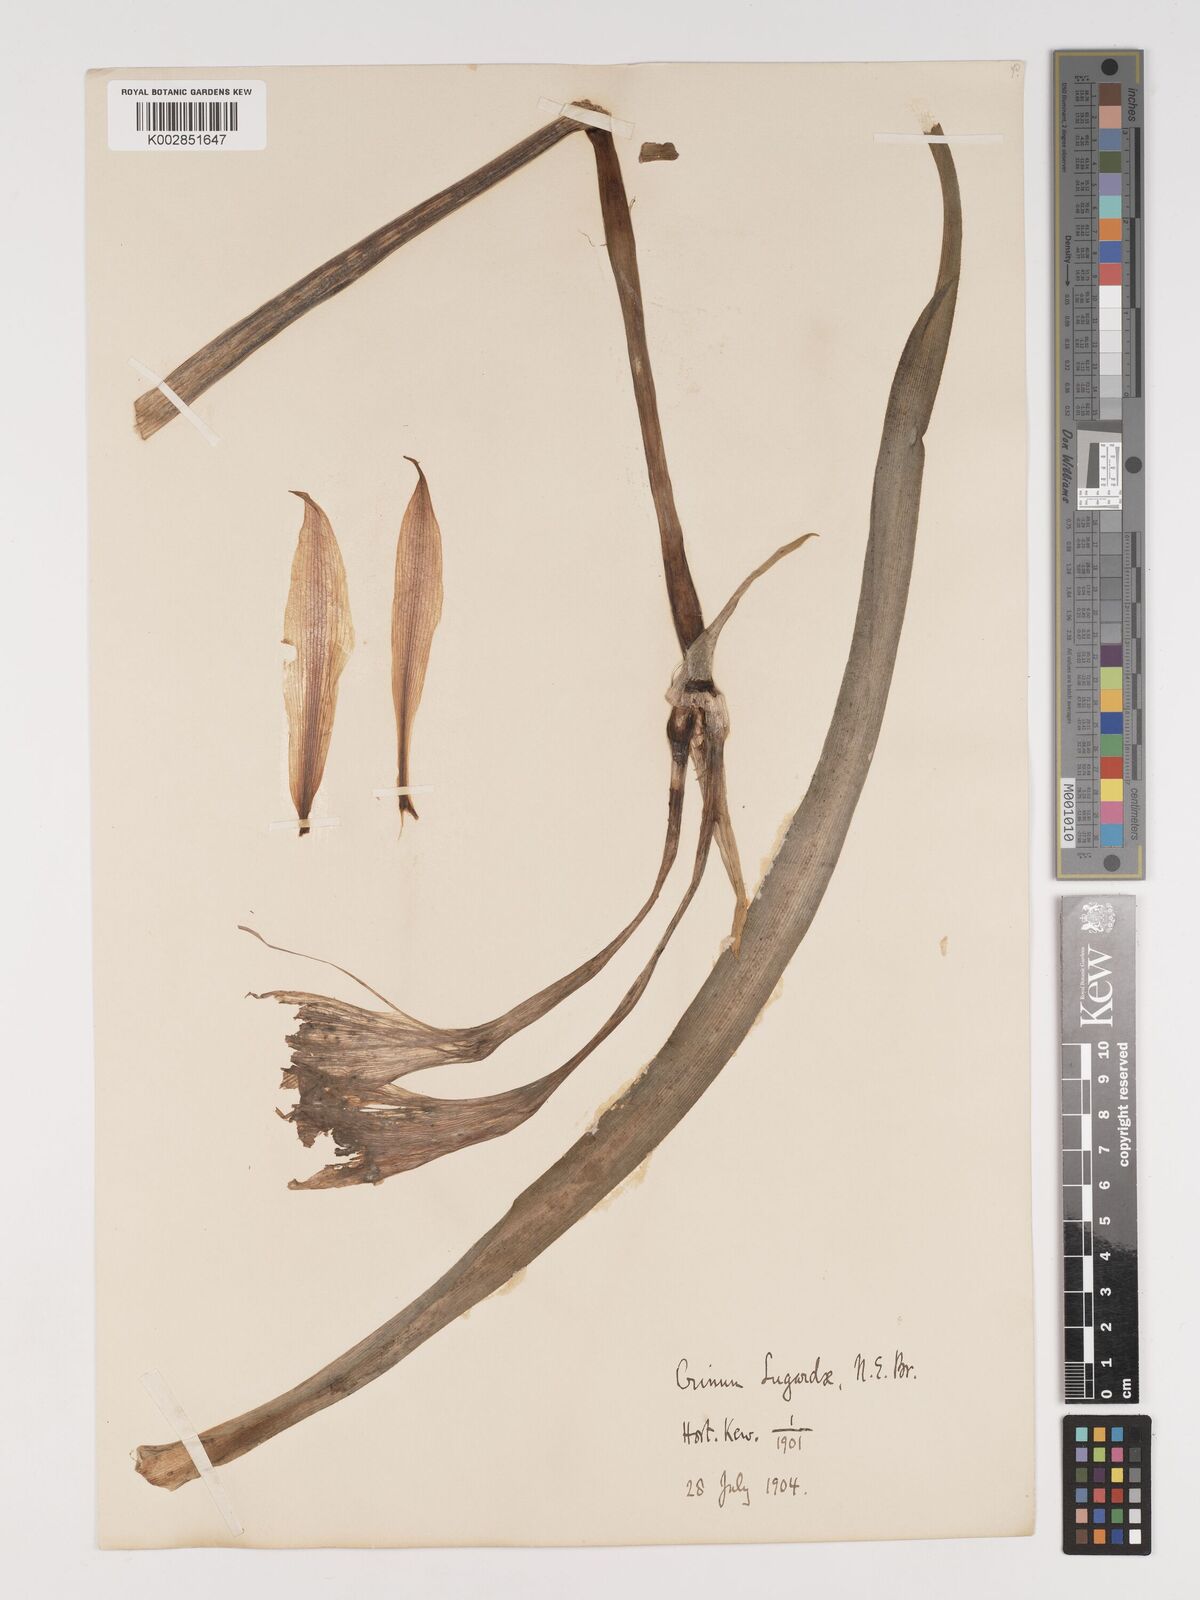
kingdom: Plantae
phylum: Tracheophyta
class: Liliopsida
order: Asparagales
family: Amaryllidaceae
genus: Crinum
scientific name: Crinum lugardiae
